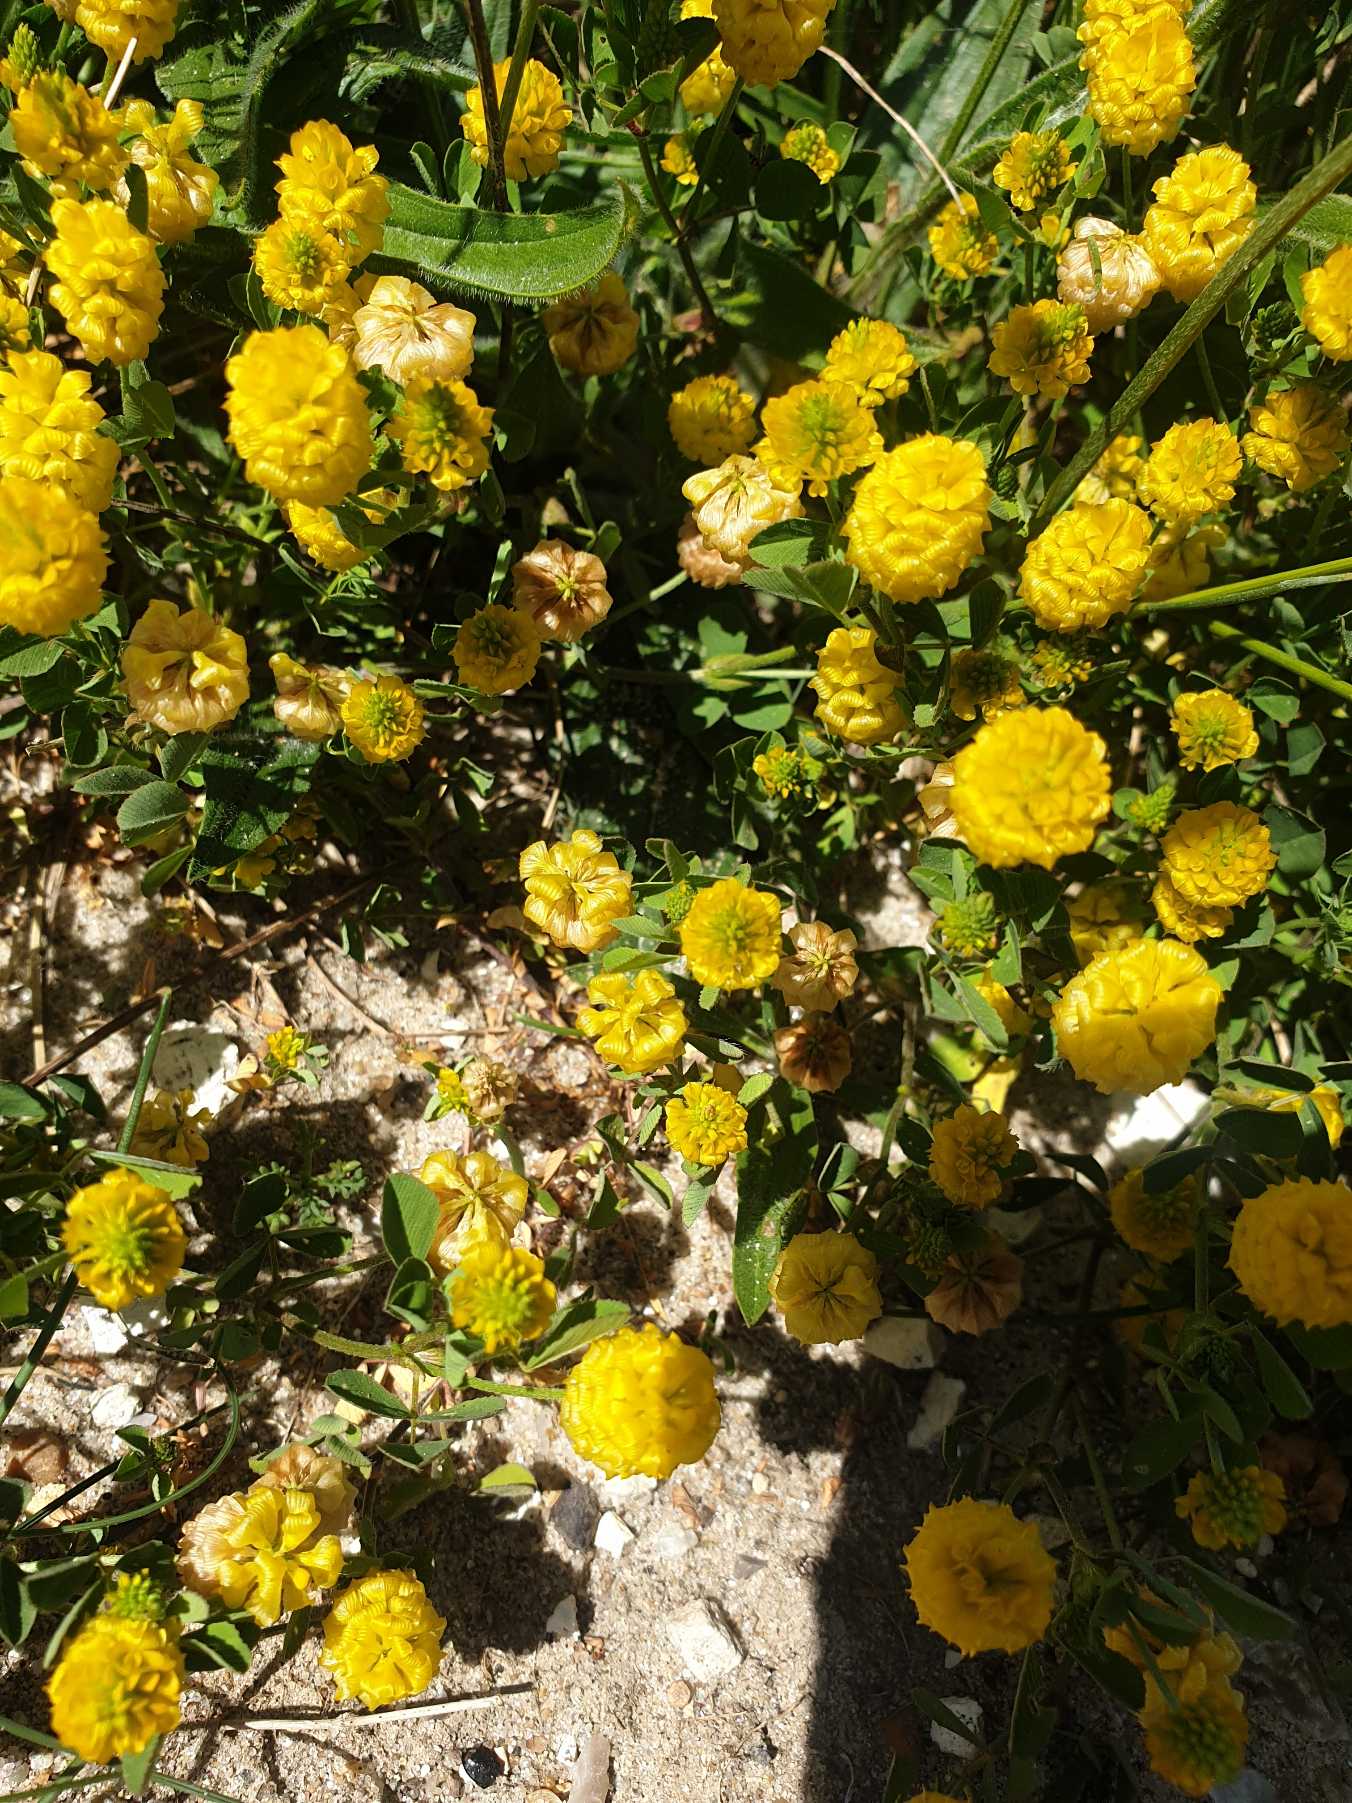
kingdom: Plantae
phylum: Tracheophyta
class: Magnoliopsida
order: Fabales
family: Fabaceae
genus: Trifolium
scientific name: Trifolium campestre
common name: Gul kløver
